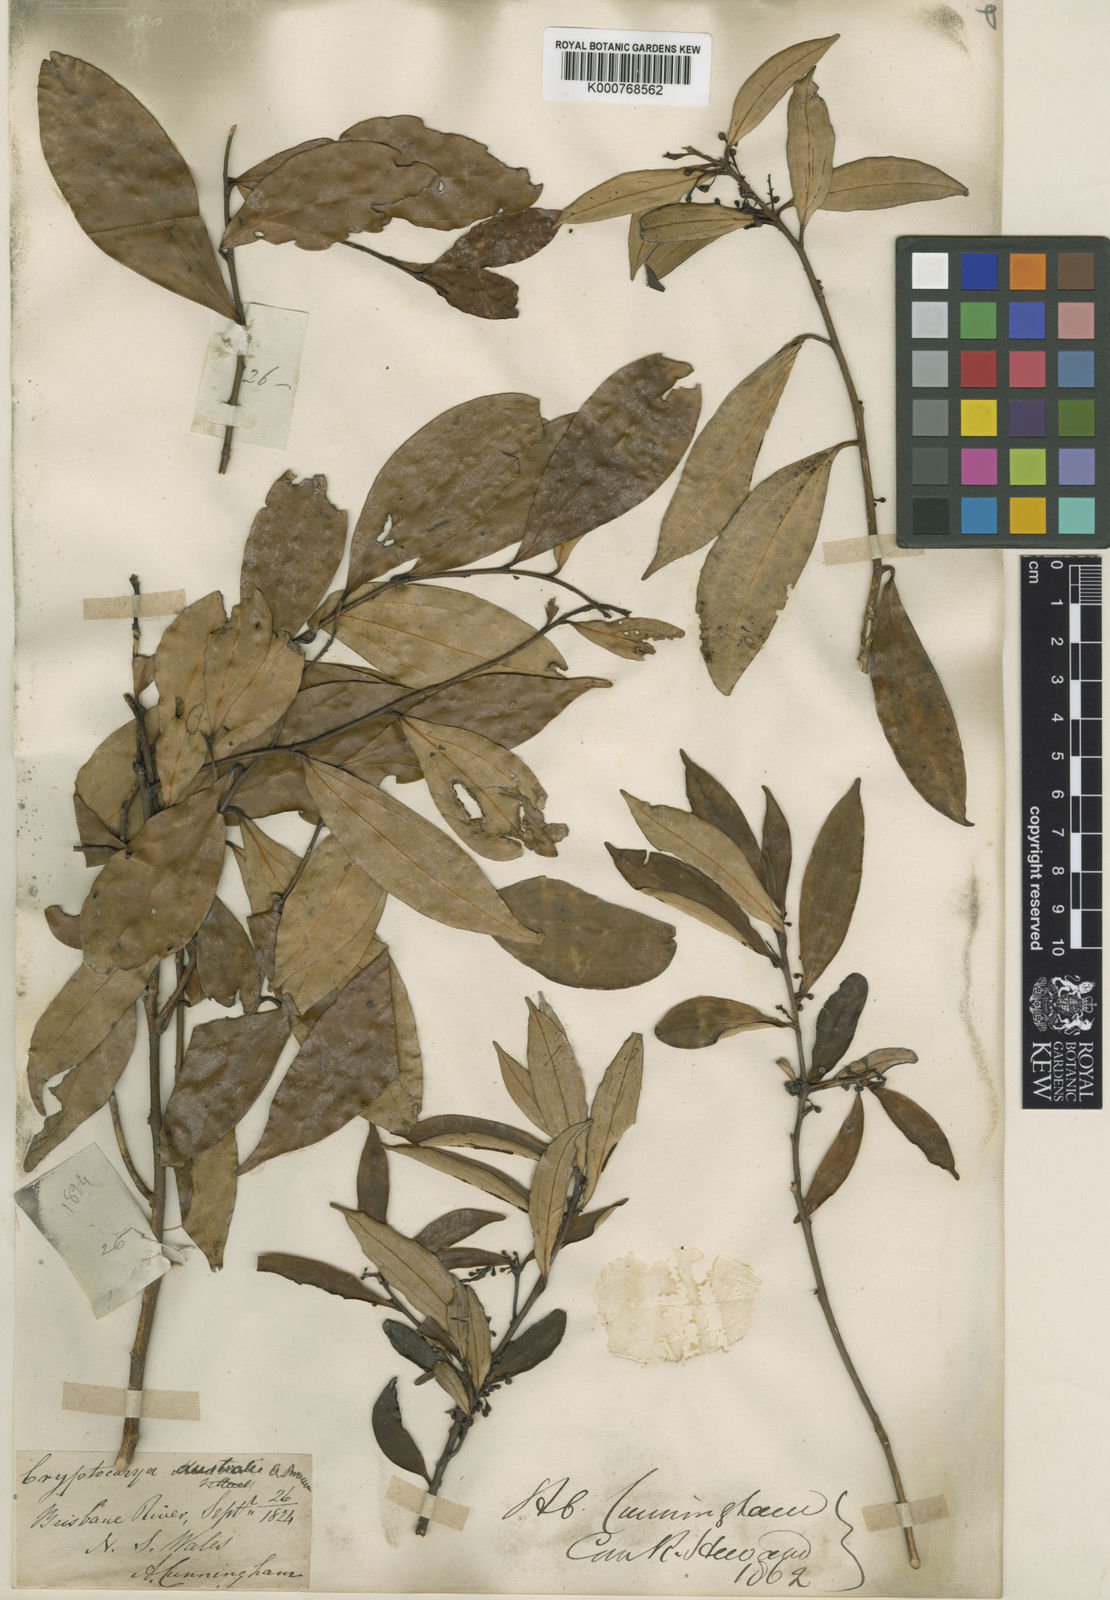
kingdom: Plantae
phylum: Tracheophyta
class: Magnoliopsida
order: Laurales
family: Lauraceae
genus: Cryptocarya
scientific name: Cryptocarya laevigata
